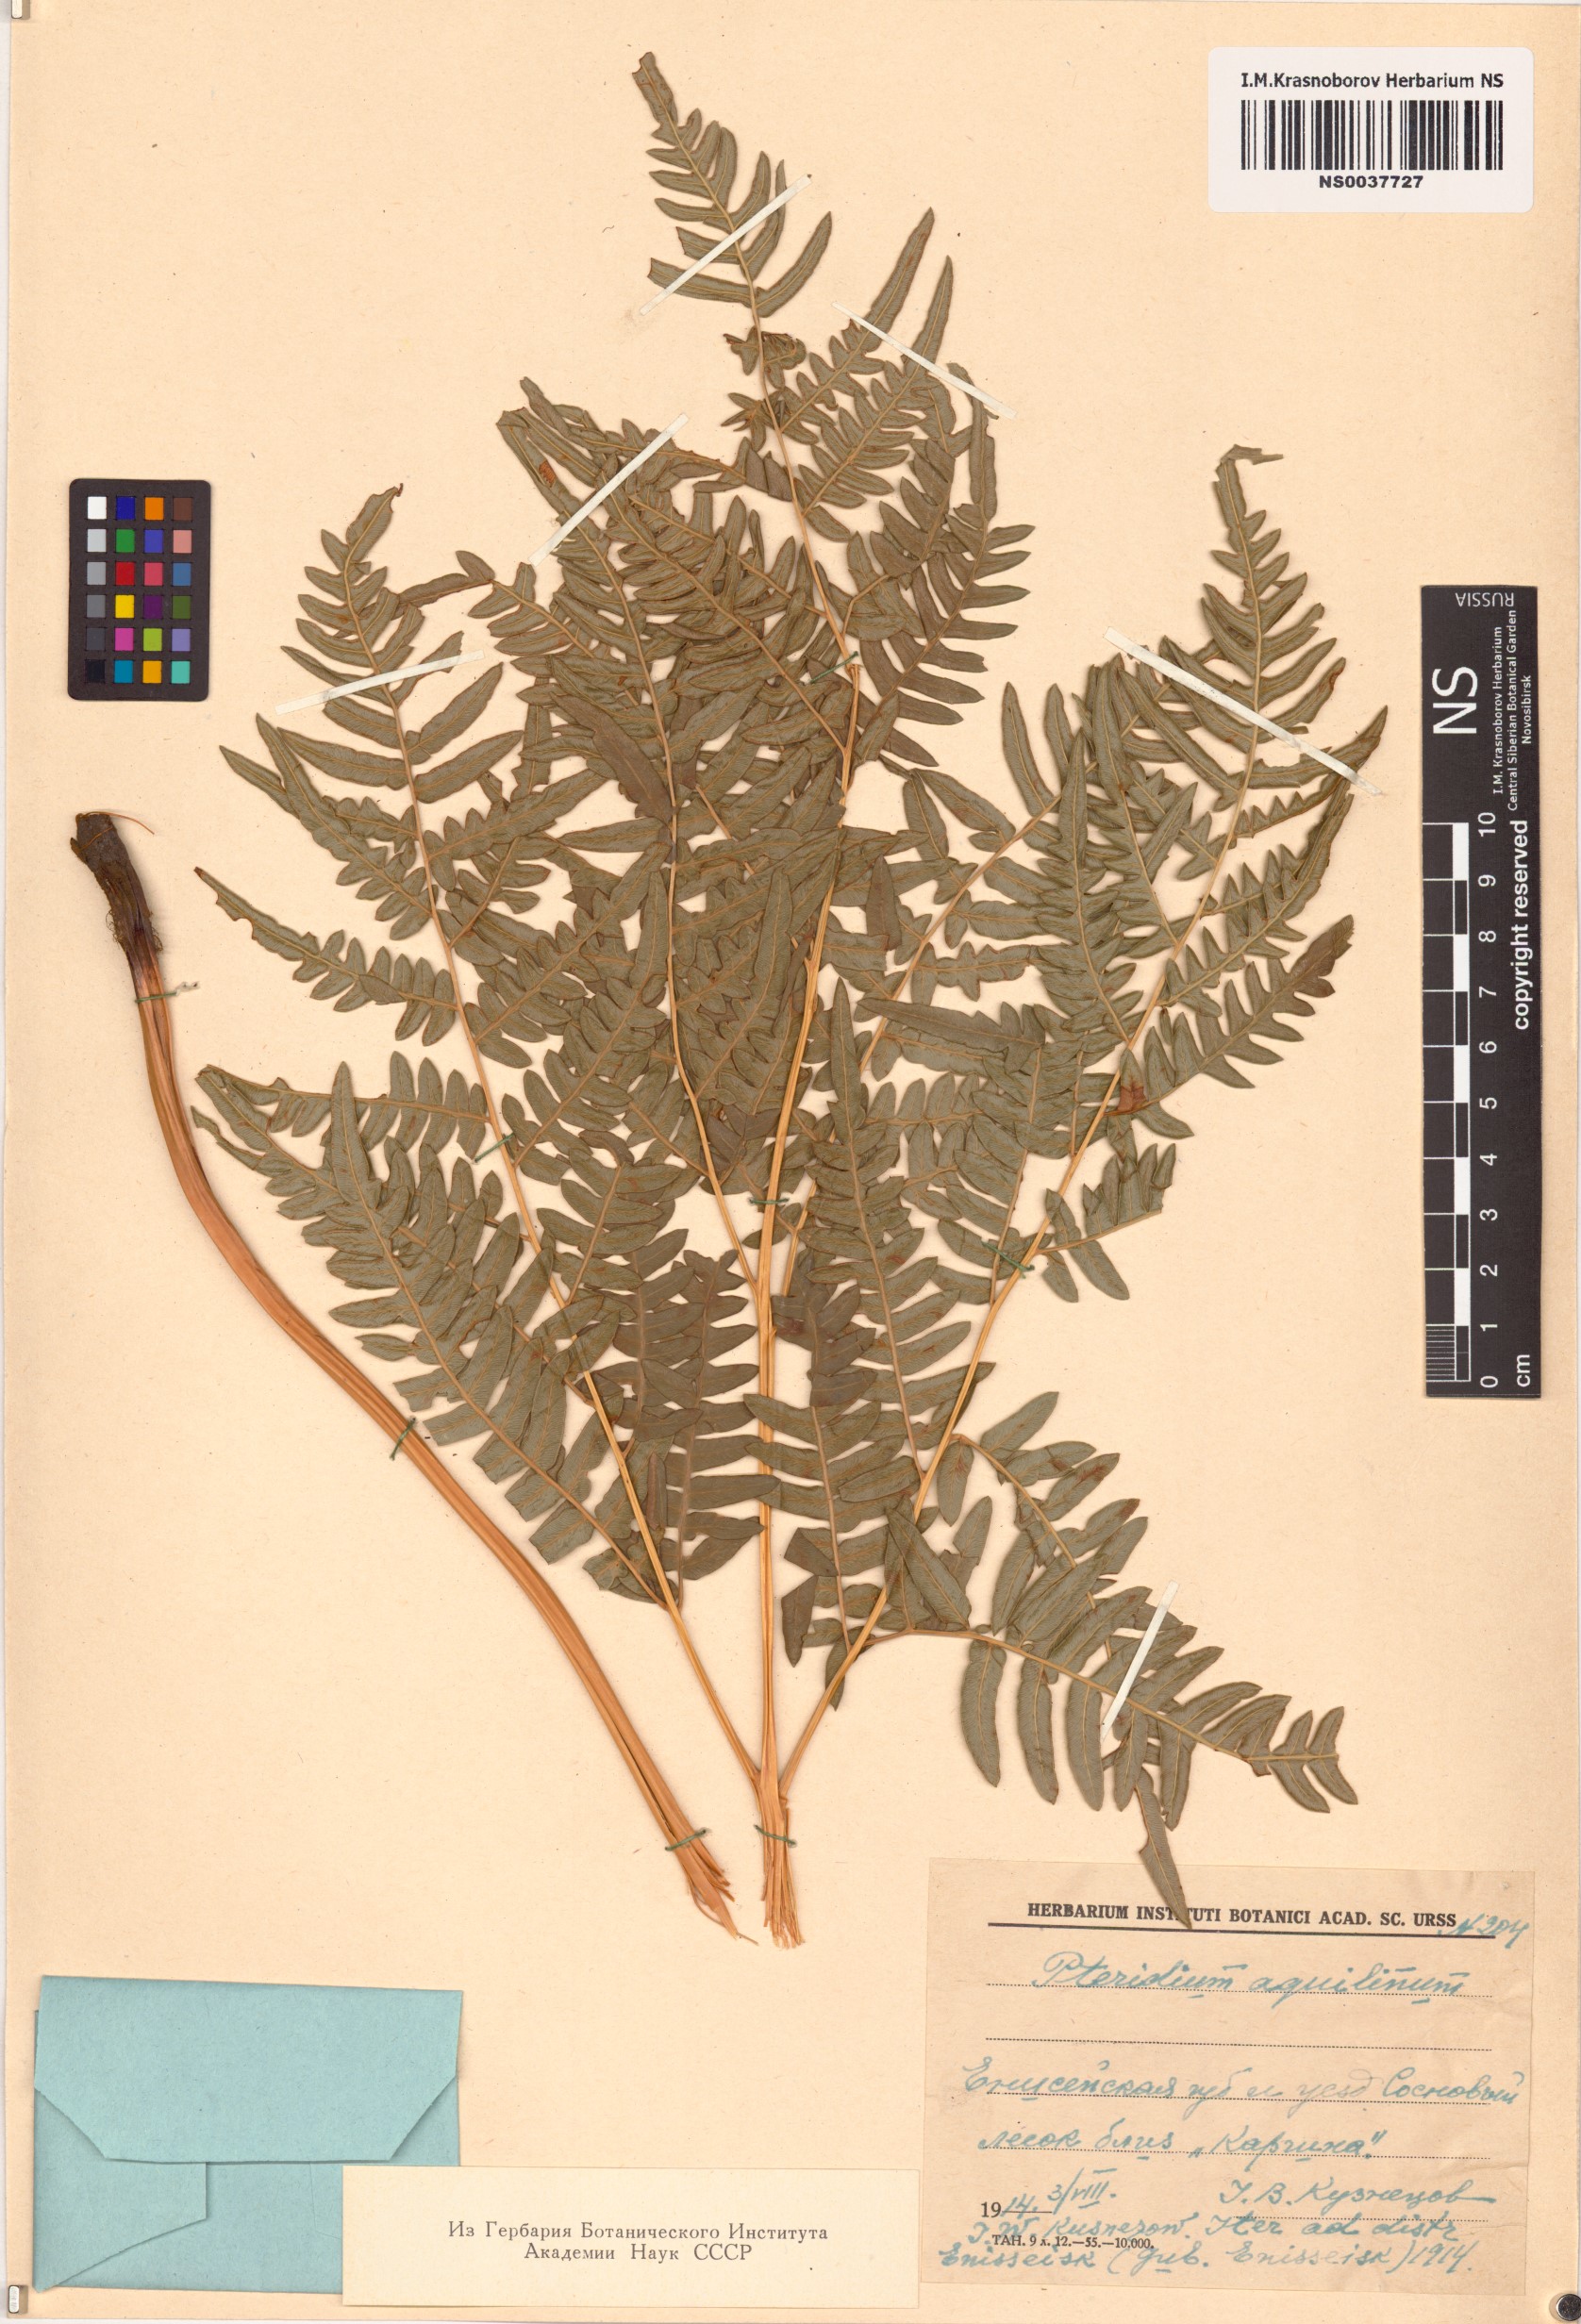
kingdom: Plantae
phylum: Tracheophyta
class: Polypodiopsida
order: Polypodiales
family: Dennstaedtiaceae
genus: Pteridium
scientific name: Pteridium aquilinum
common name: Bracken
